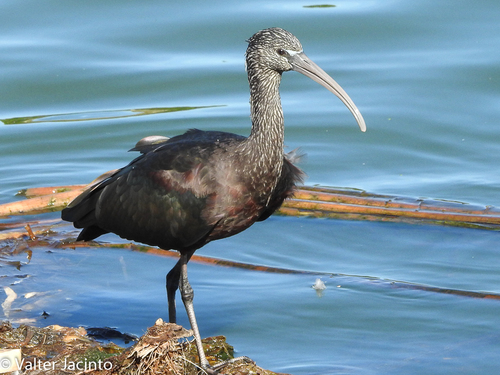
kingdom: Animalia
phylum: Chordata
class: Aves
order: Pelecaniformes
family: Threskiornithidae
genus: Plegadis
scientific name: Plegadis falcinellus
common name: Glossy ibis
